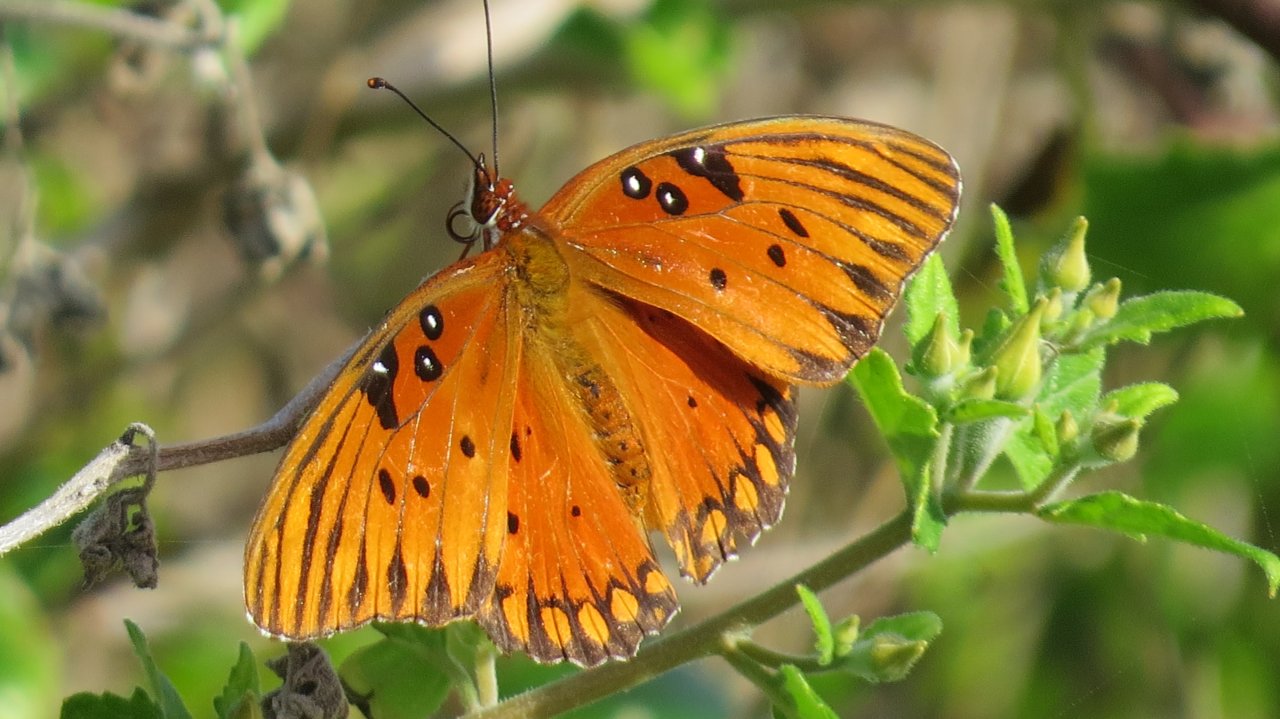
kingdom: Animalia
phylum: Arthropoda
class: Insecta
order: Lepidoptera
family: Nymphalidae
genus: Dione
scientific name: Dione vanillae
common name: Gulf Fritillary
